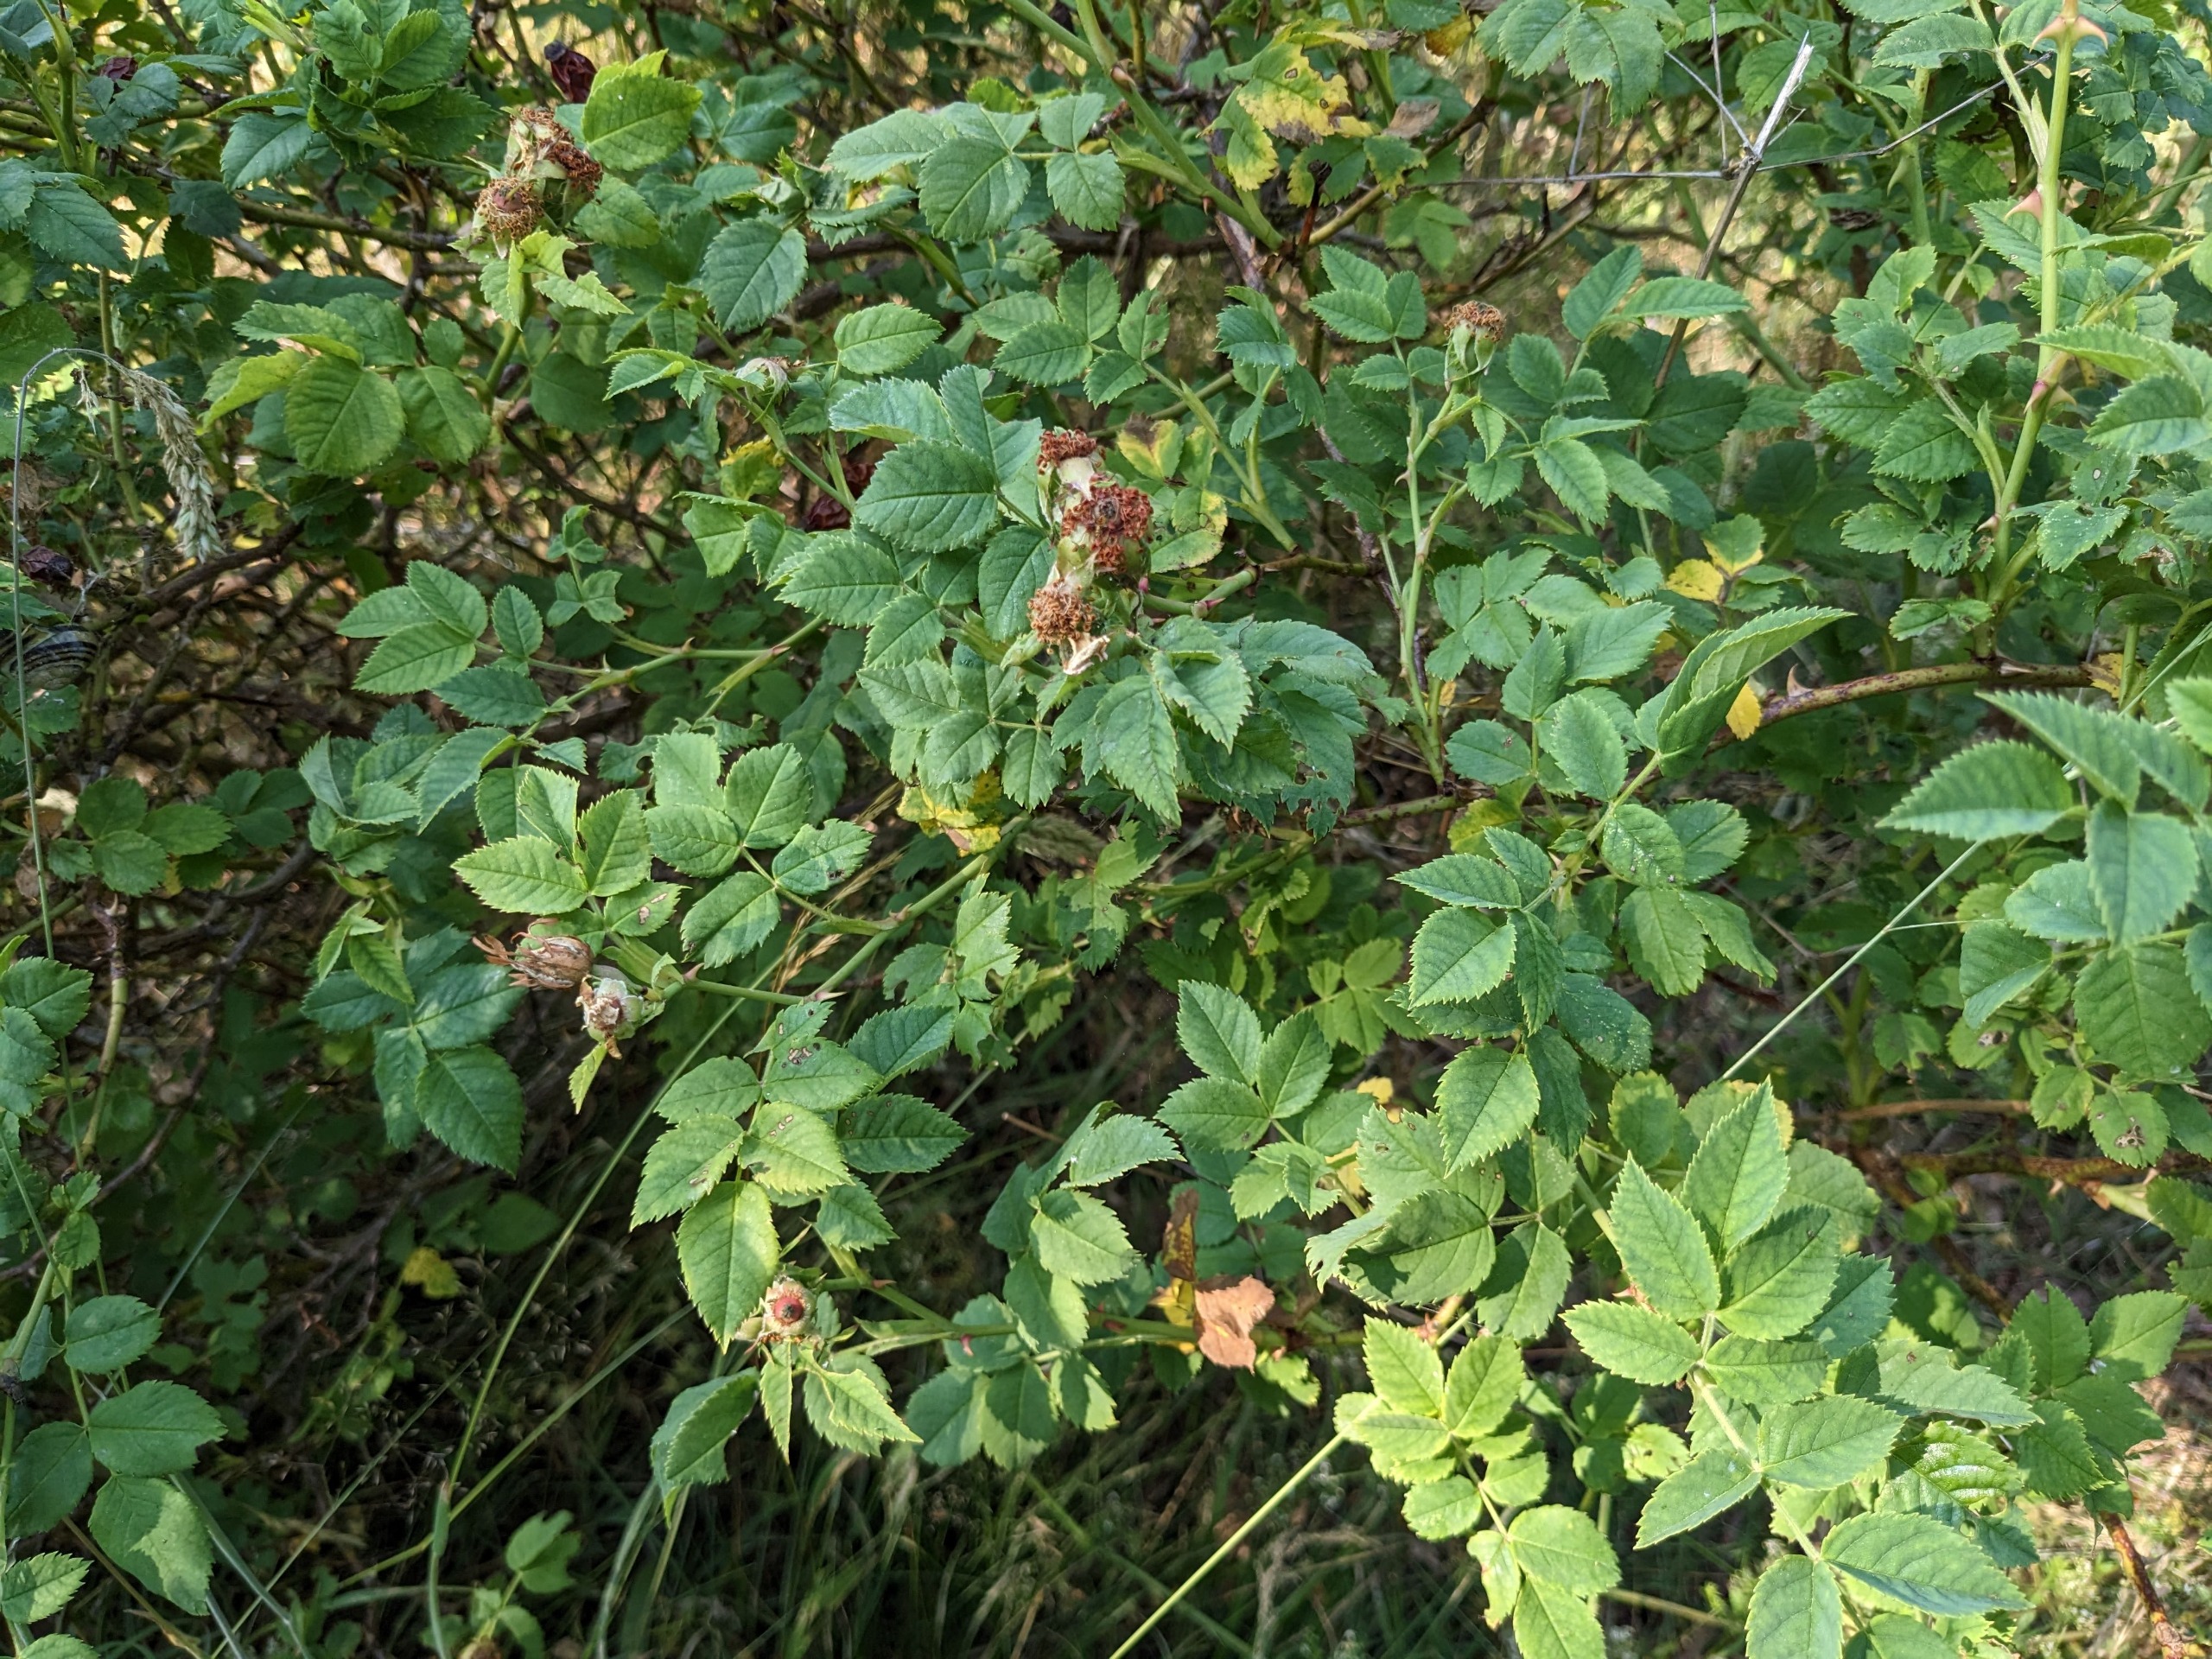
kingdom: Plantae
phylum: Tracheophyta
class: Magnoliopsida
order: Rosales
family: Rosaceae
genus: Rosa
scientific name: Rosa dumalis
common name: Blågrøn rose (underart)
